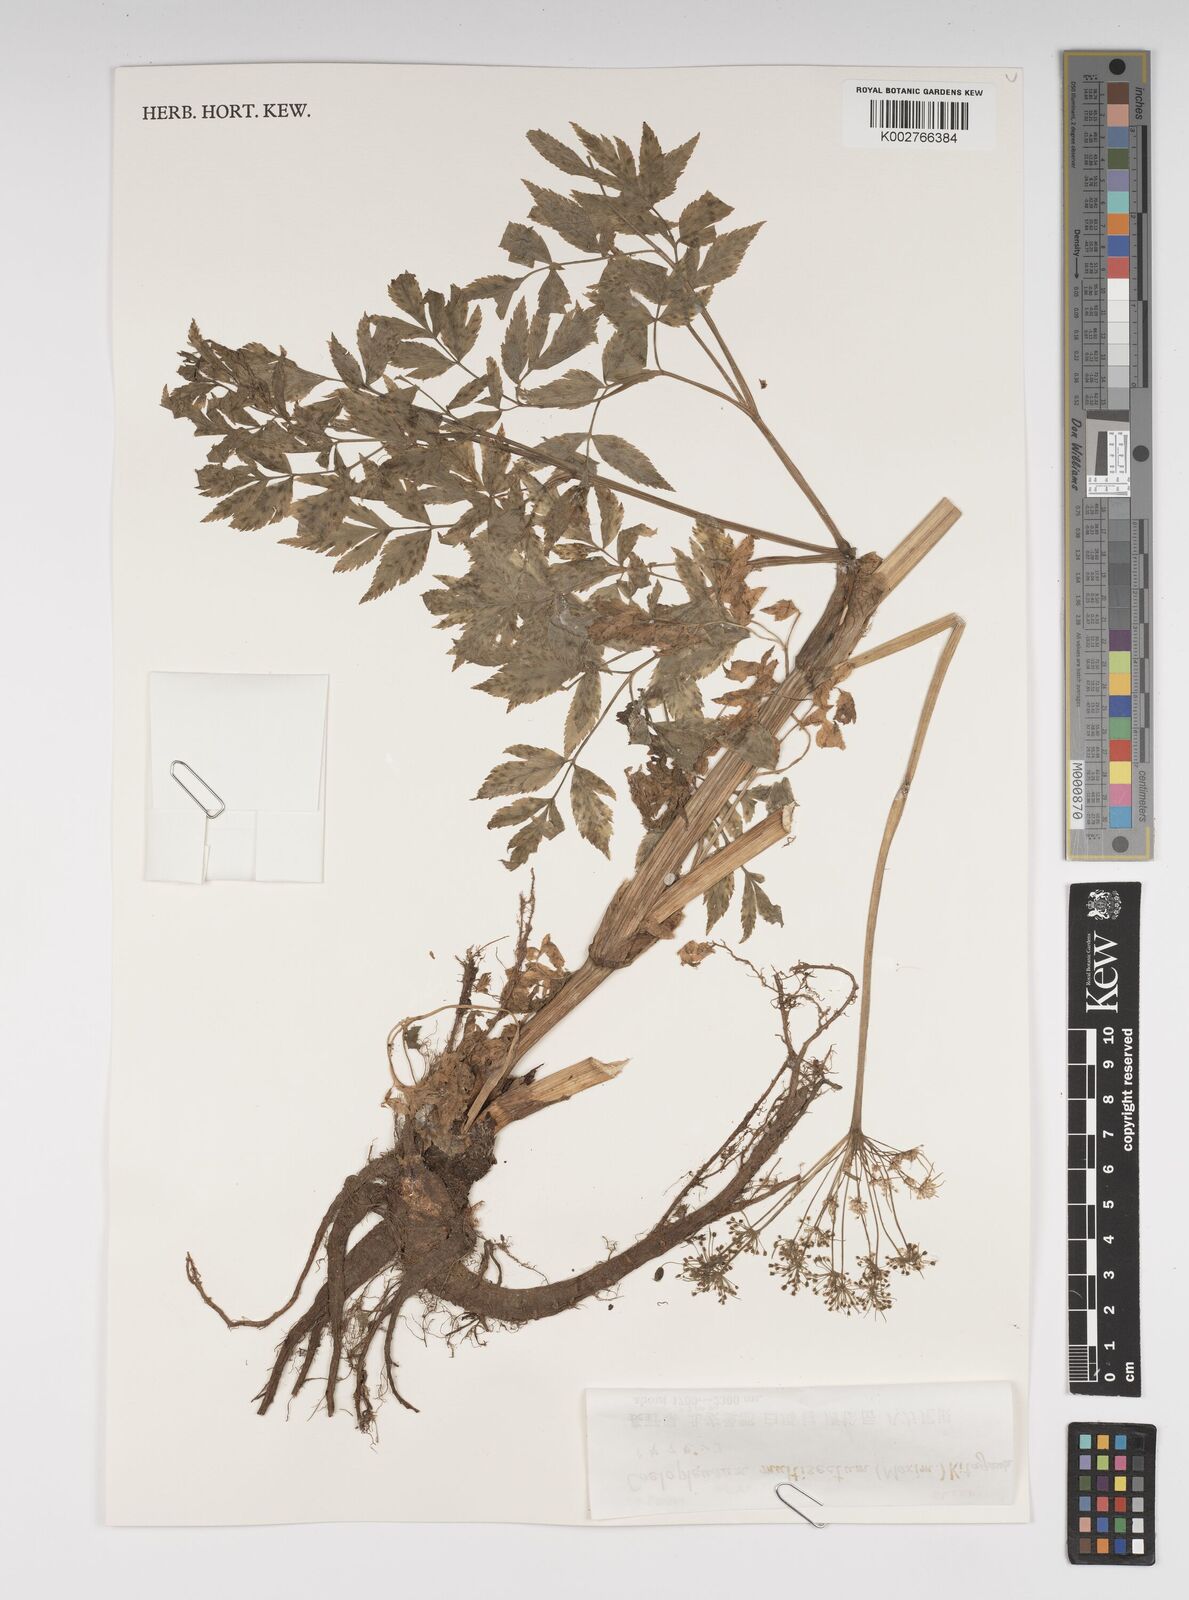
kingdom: Plantae
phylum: Tracheophyta
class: Magnoliopsida
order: Apiales
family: Apiaceae
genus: Angelica
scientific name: Angelica
